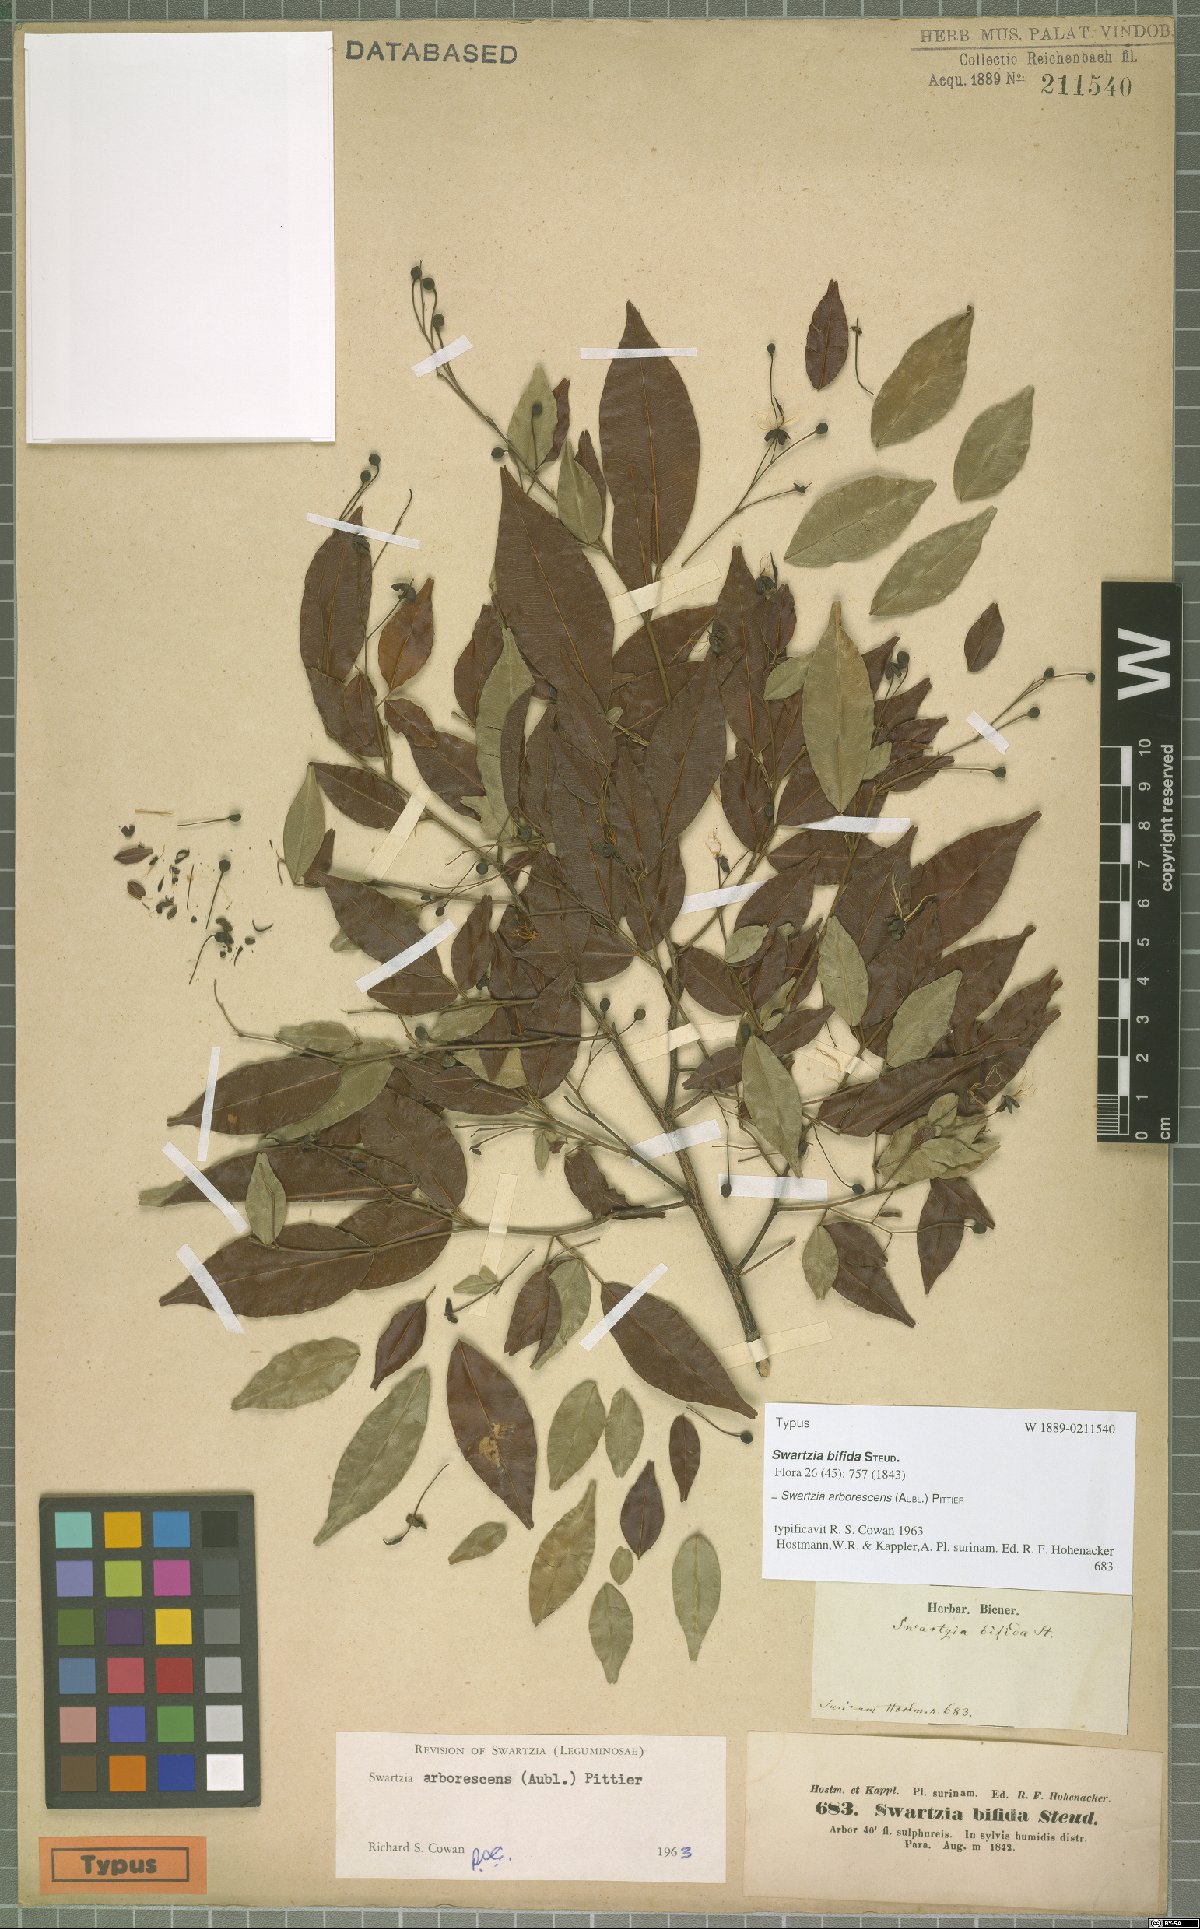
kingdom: Plantae
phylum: Tracheophyta
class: Magnoliopsida
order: Fabales
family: Fabaceae
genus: Swartzia
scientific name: Swartzia arborescens
